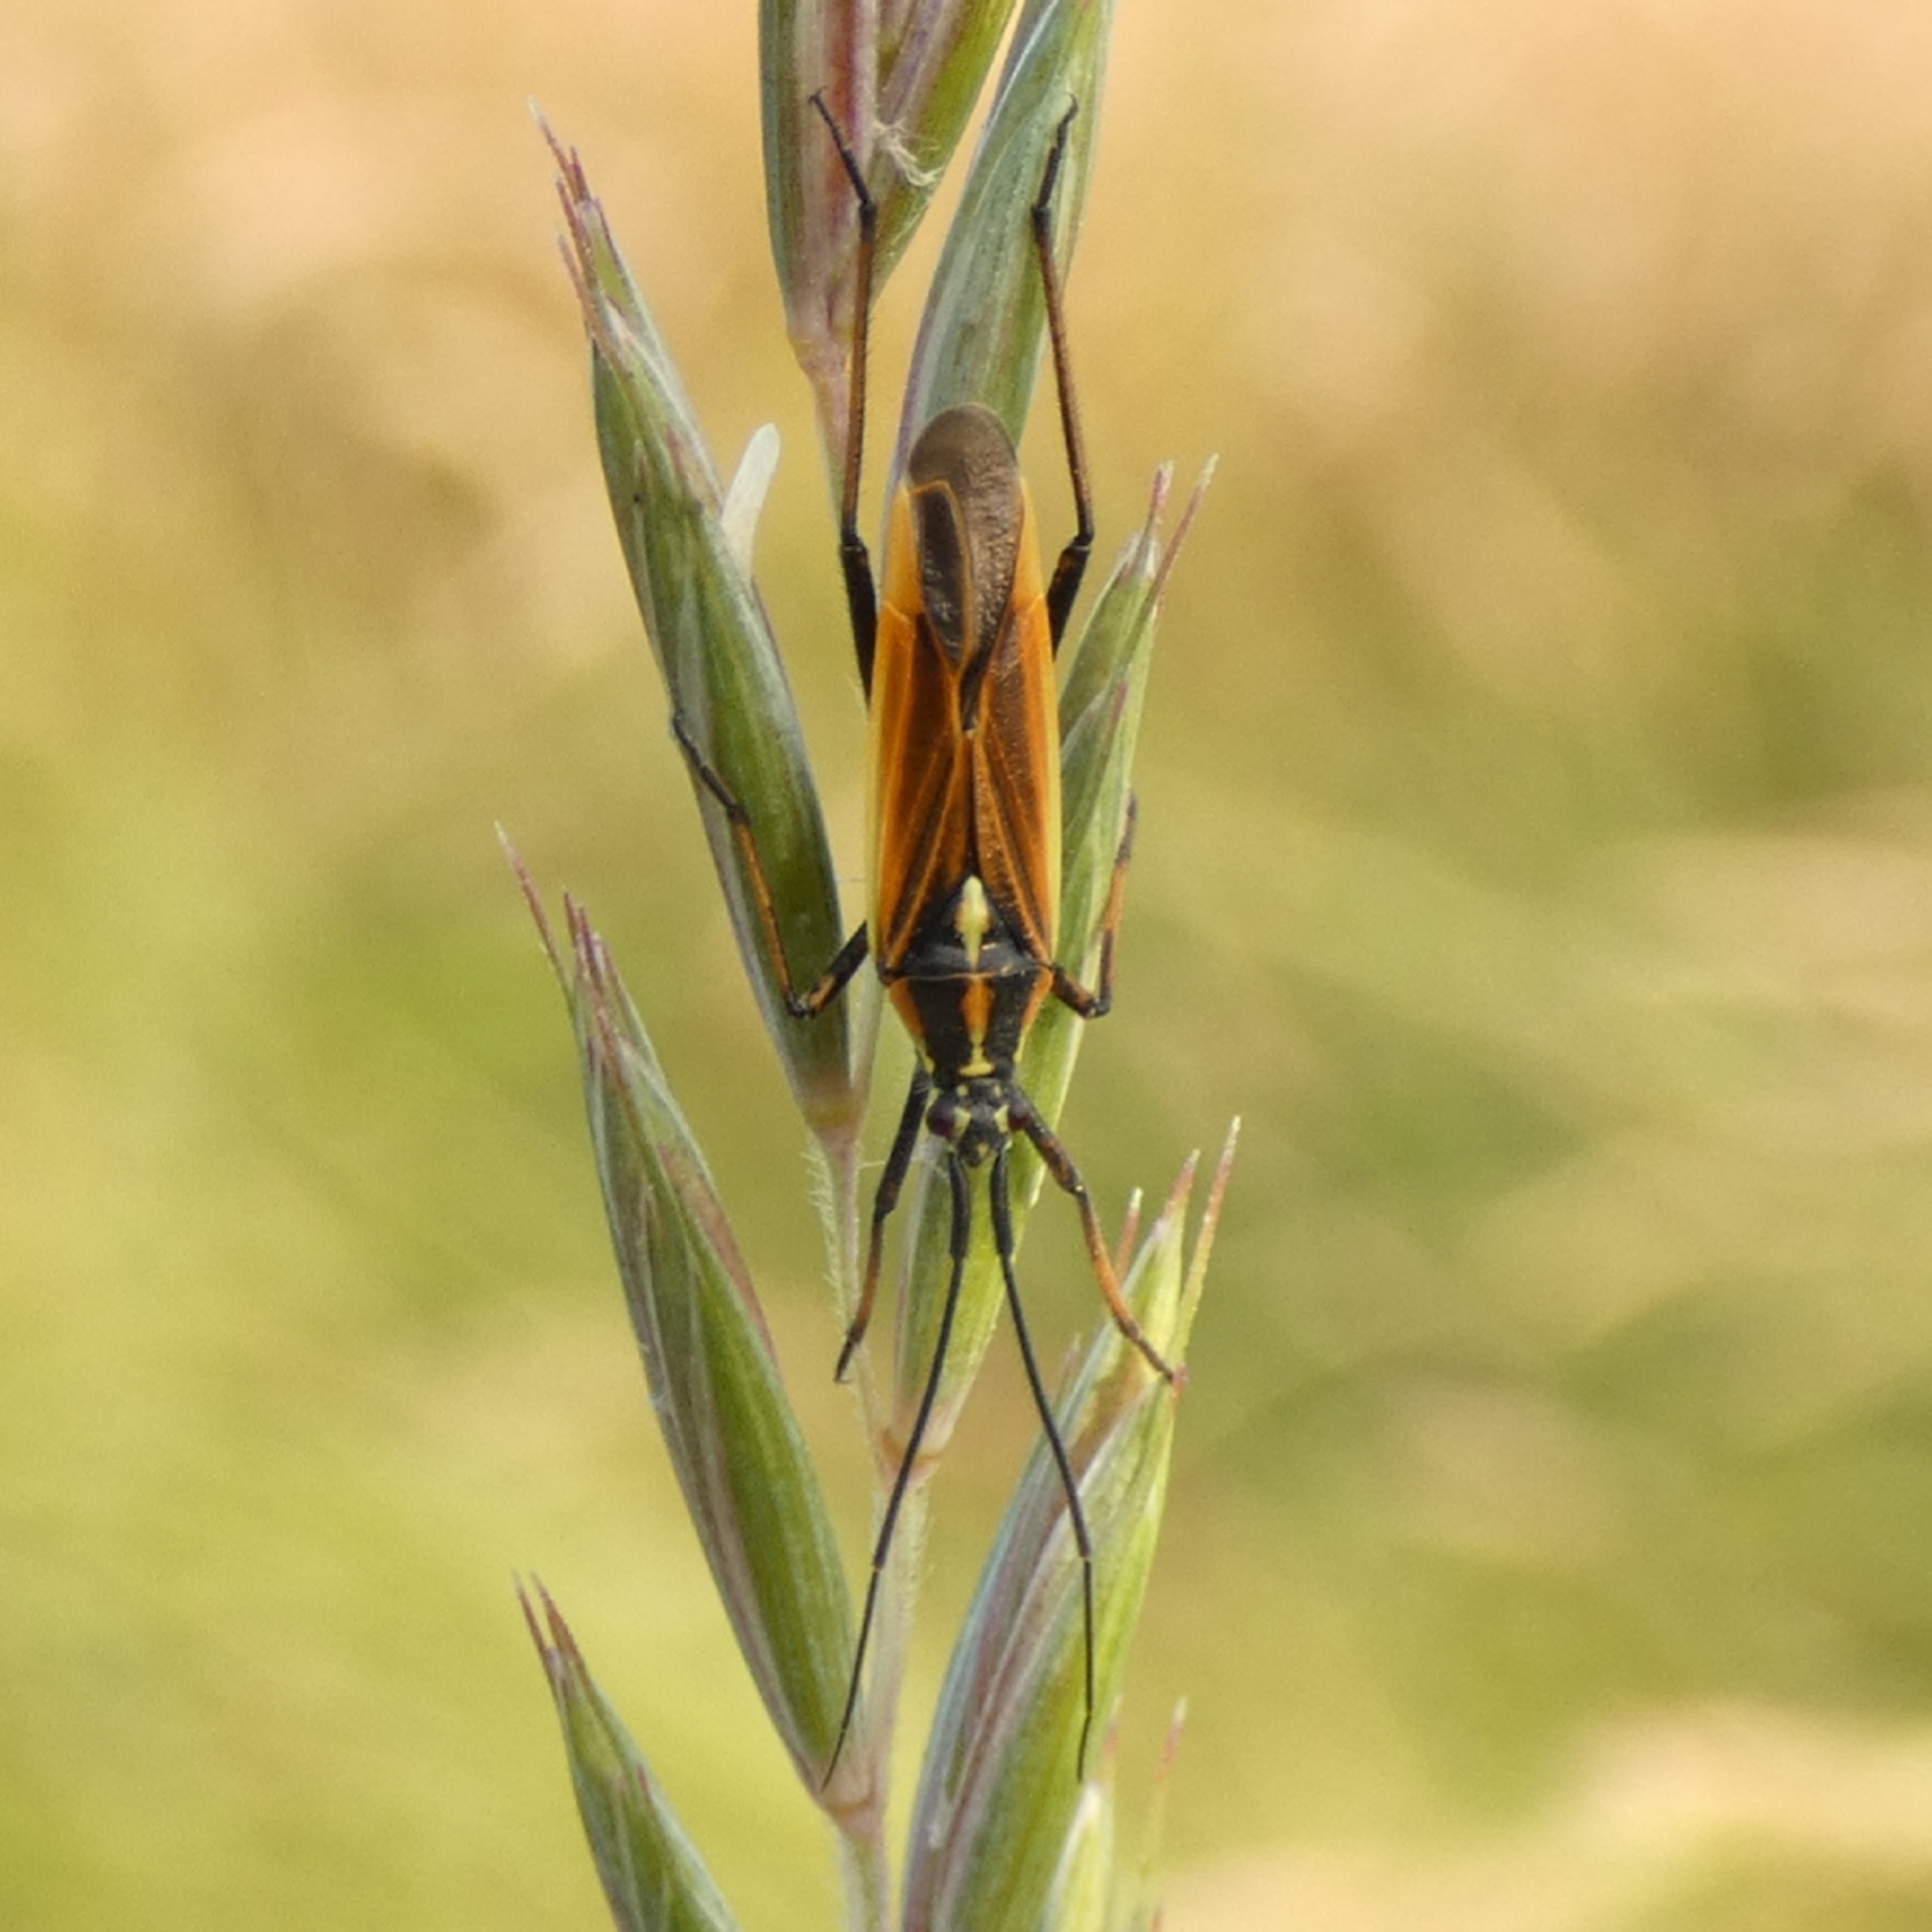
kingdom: Animalia
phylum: Arthropoda
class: Insecta
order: Hemiptera
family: Miridae
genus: Leptopterna
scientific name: Leptopterna dolabrata
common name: Almindelig græstæge
